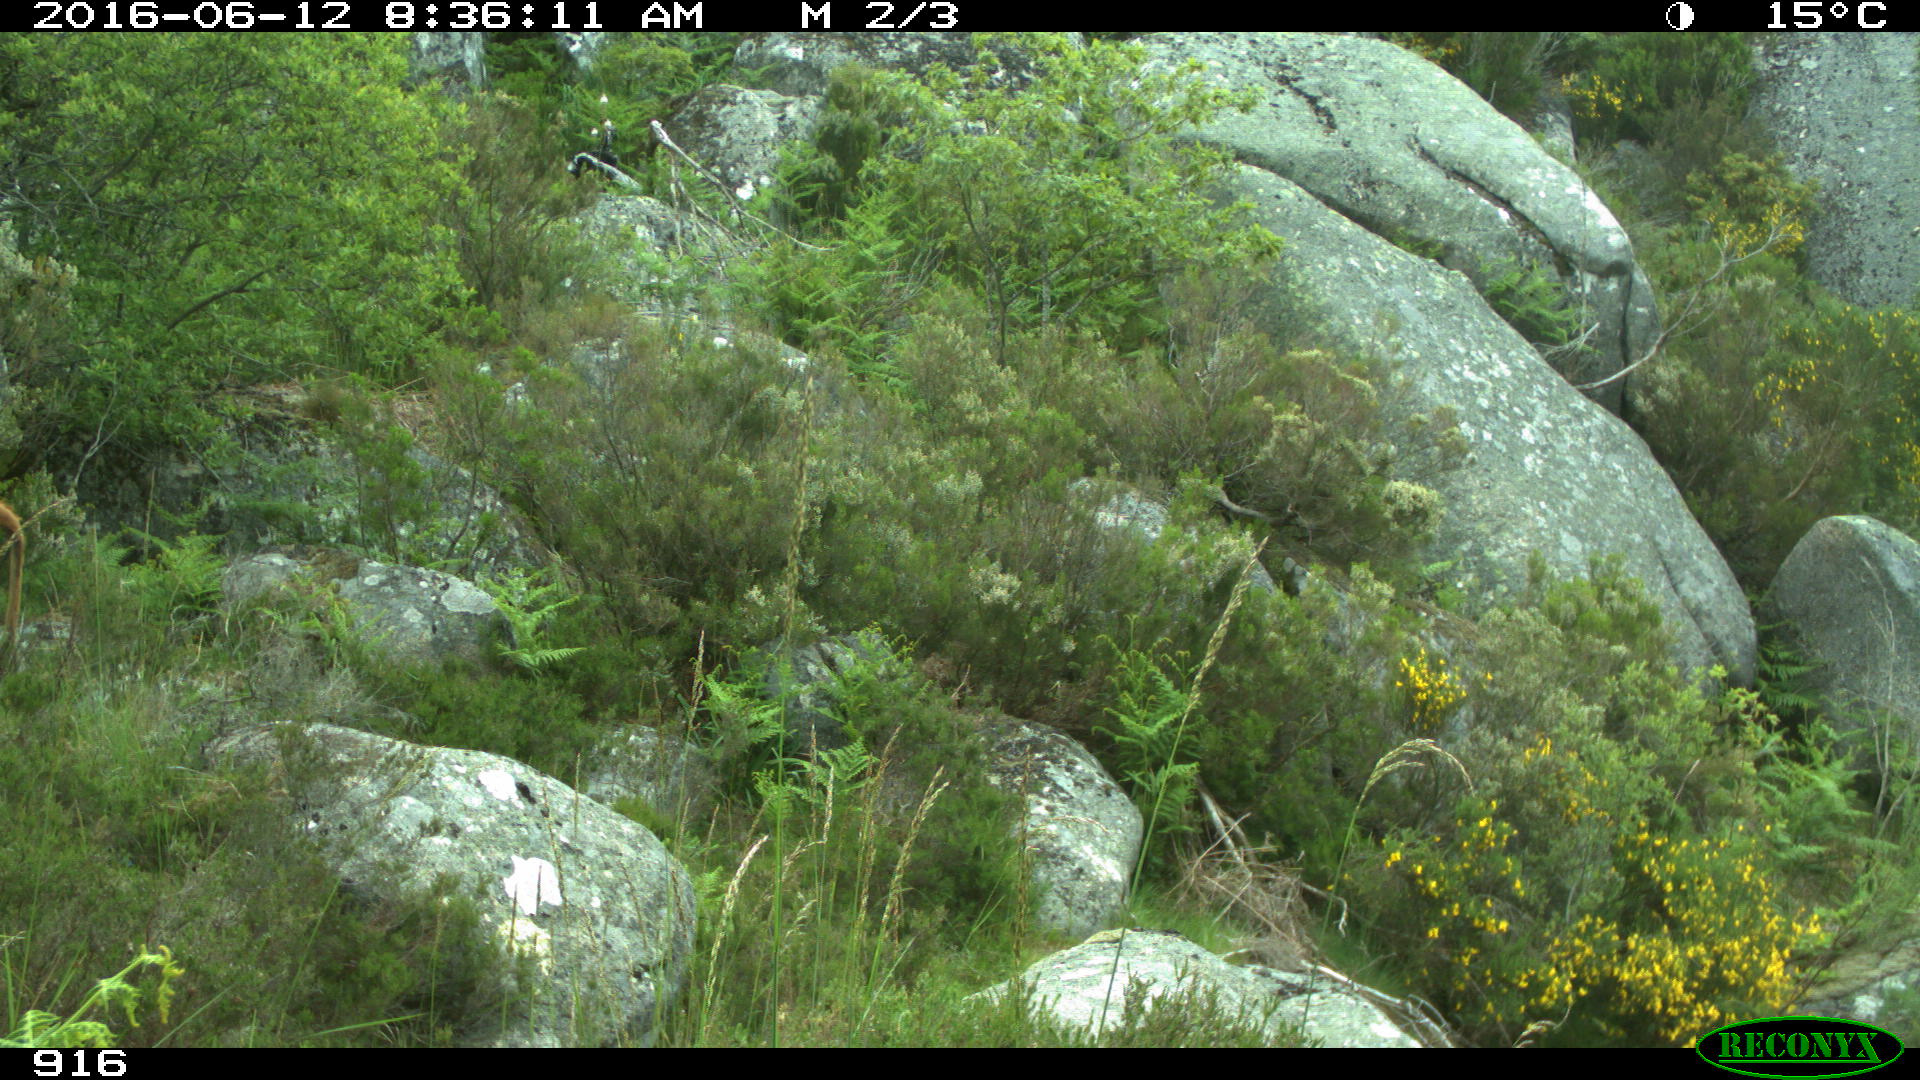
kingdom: Animalia
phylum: Chordata
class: Mammalia
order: Artiodactyla
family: Bovidae
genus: Bos
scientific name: Bos taurus
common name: Domesticated cattle
